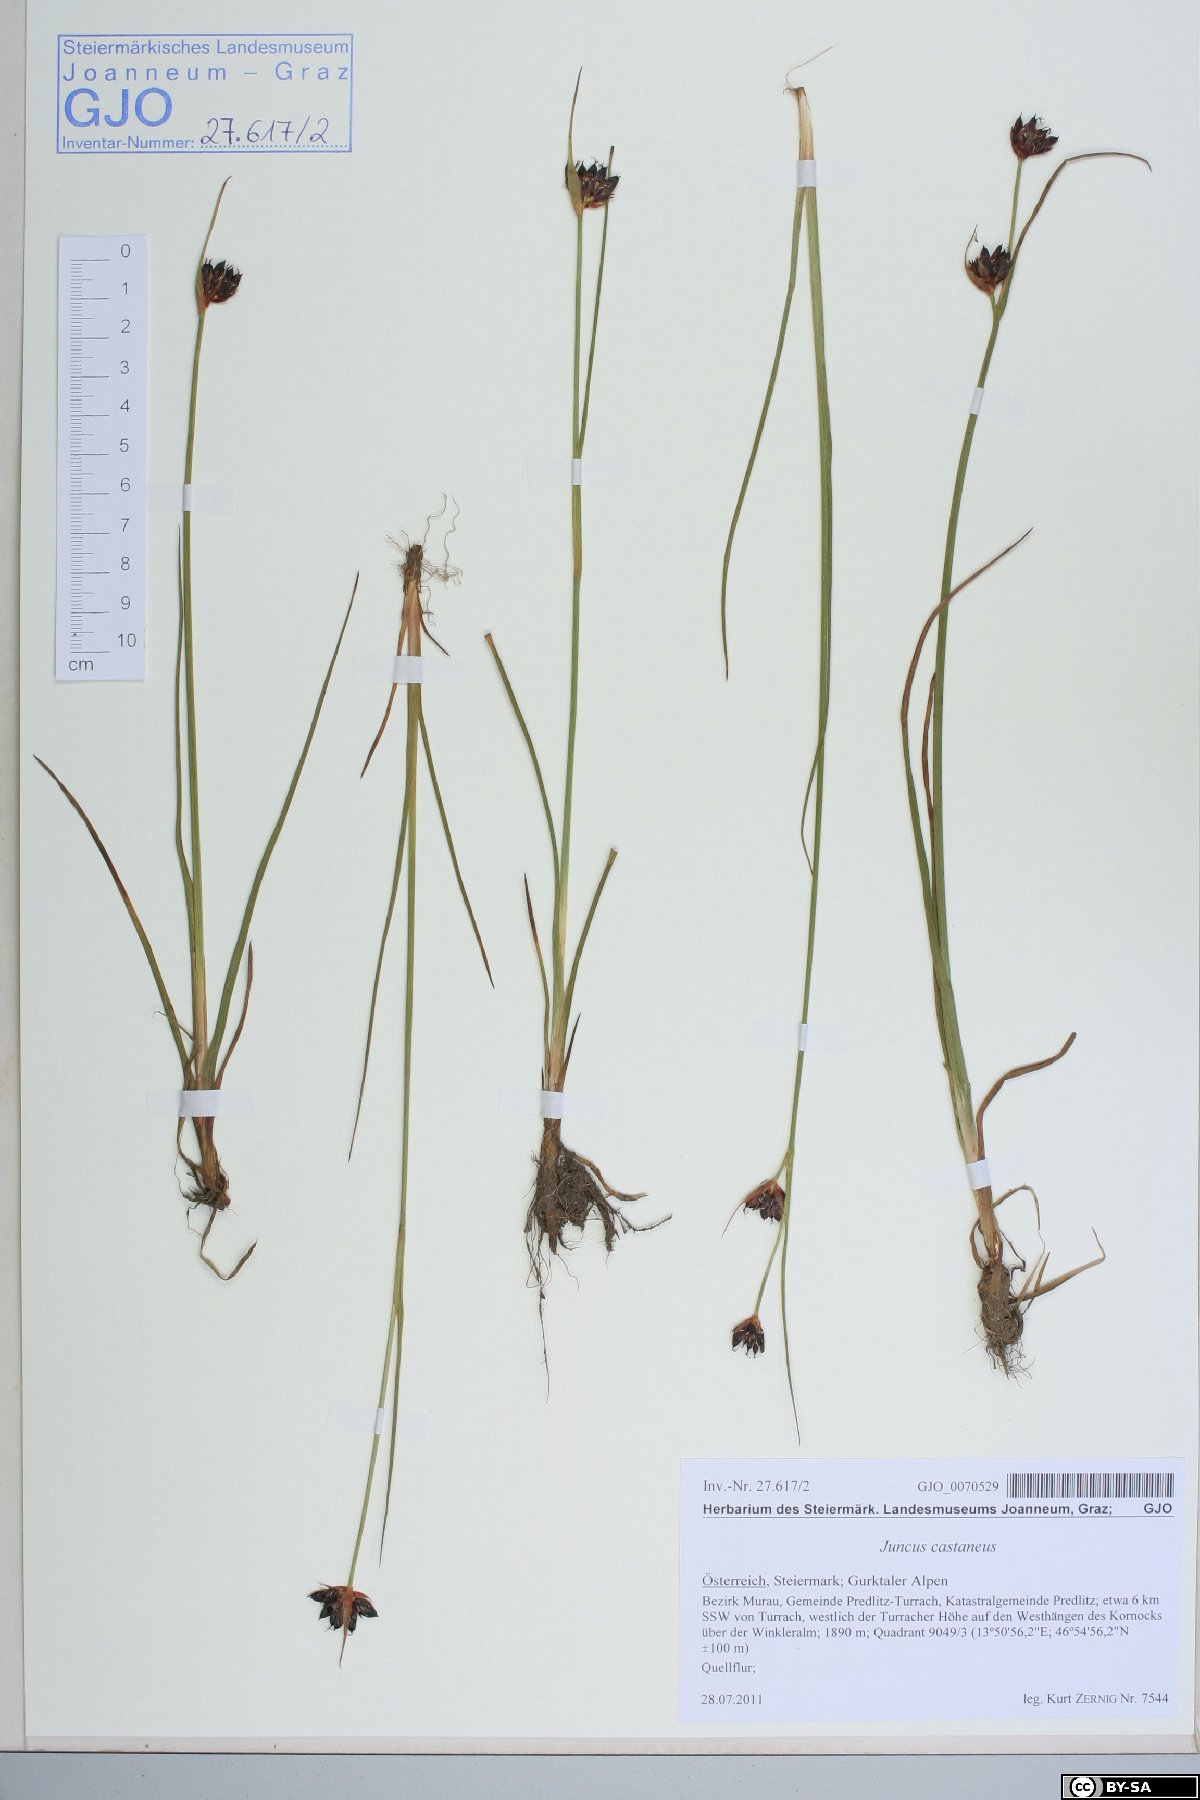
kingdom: Plantae
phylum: Tracheophyta
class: Liliopsida
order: Poales
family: Juncaceae
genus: Juncus
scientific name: Juncus castaneus
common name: Chestnut rush
